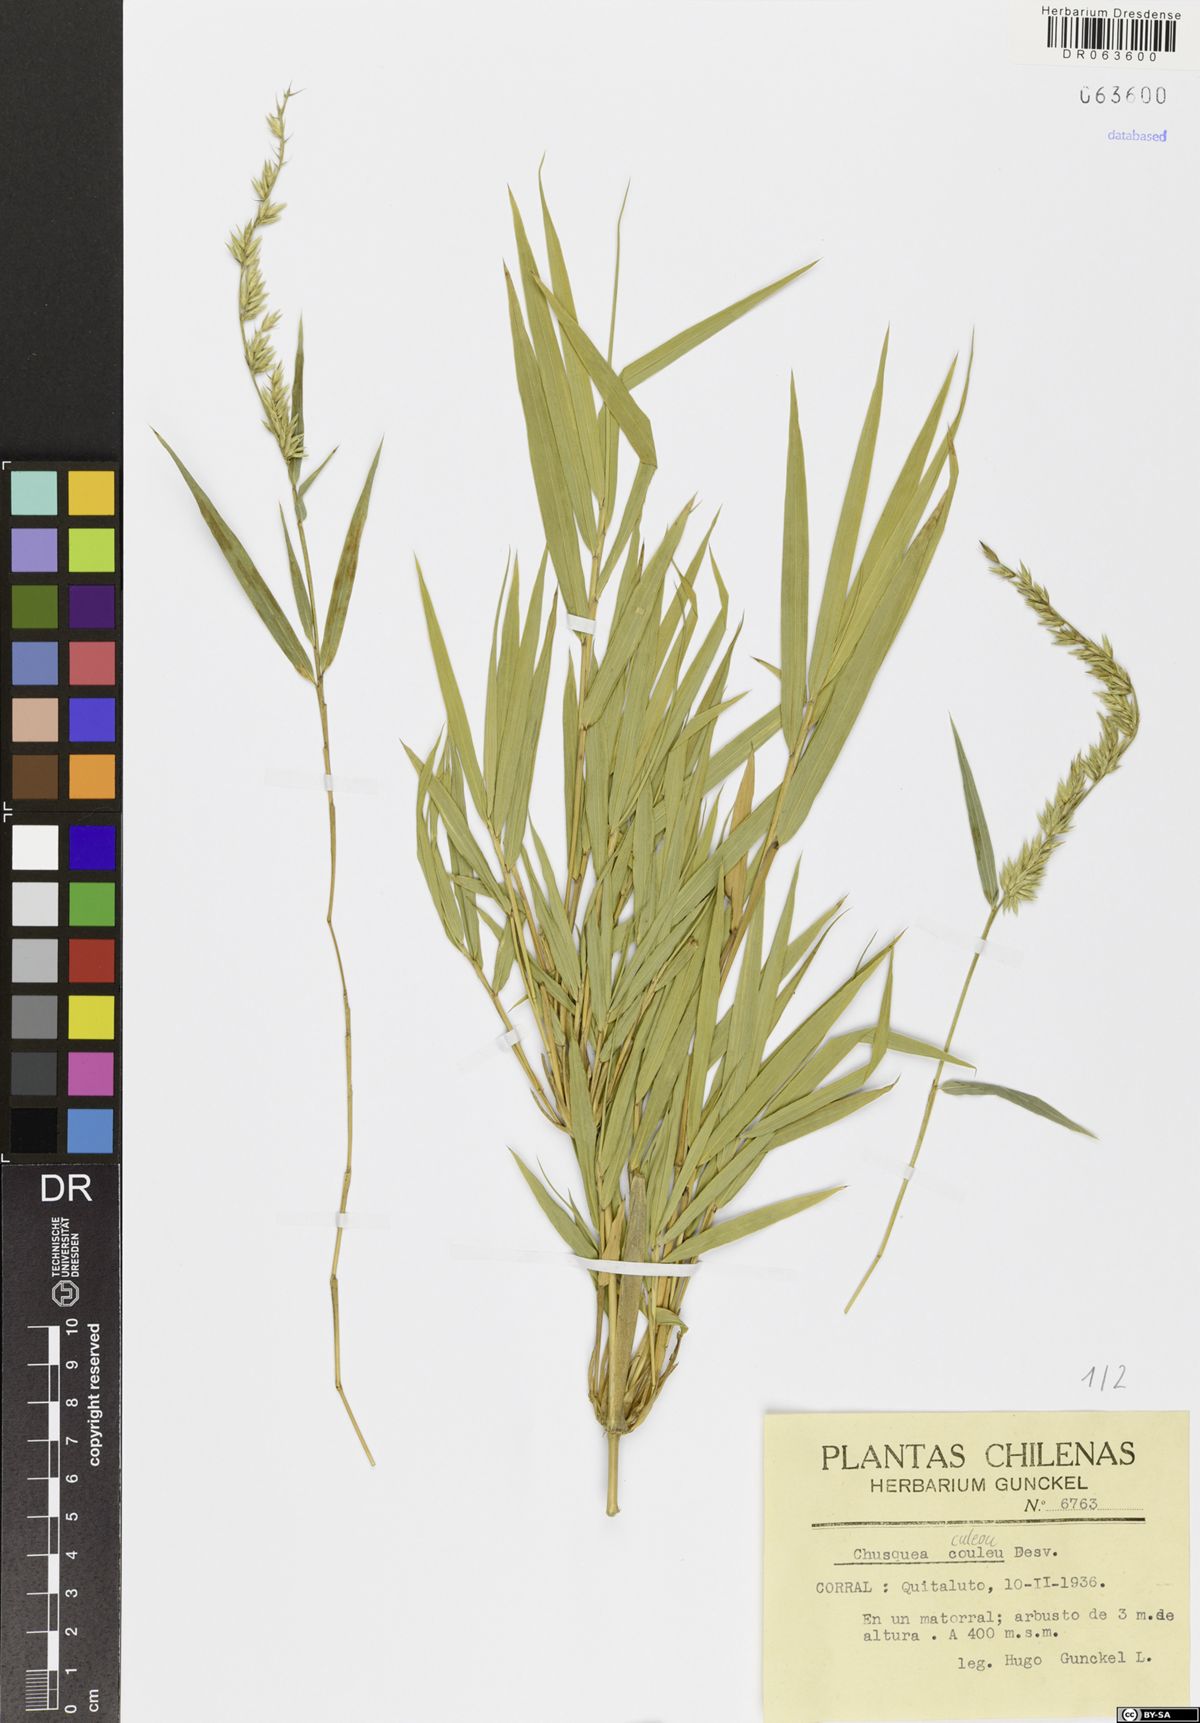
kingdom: Plantae
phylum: Tracheophyta
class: Liliopsida
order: Poales
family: Poaceae
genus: Chusquea
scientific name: Chusquea culeou
